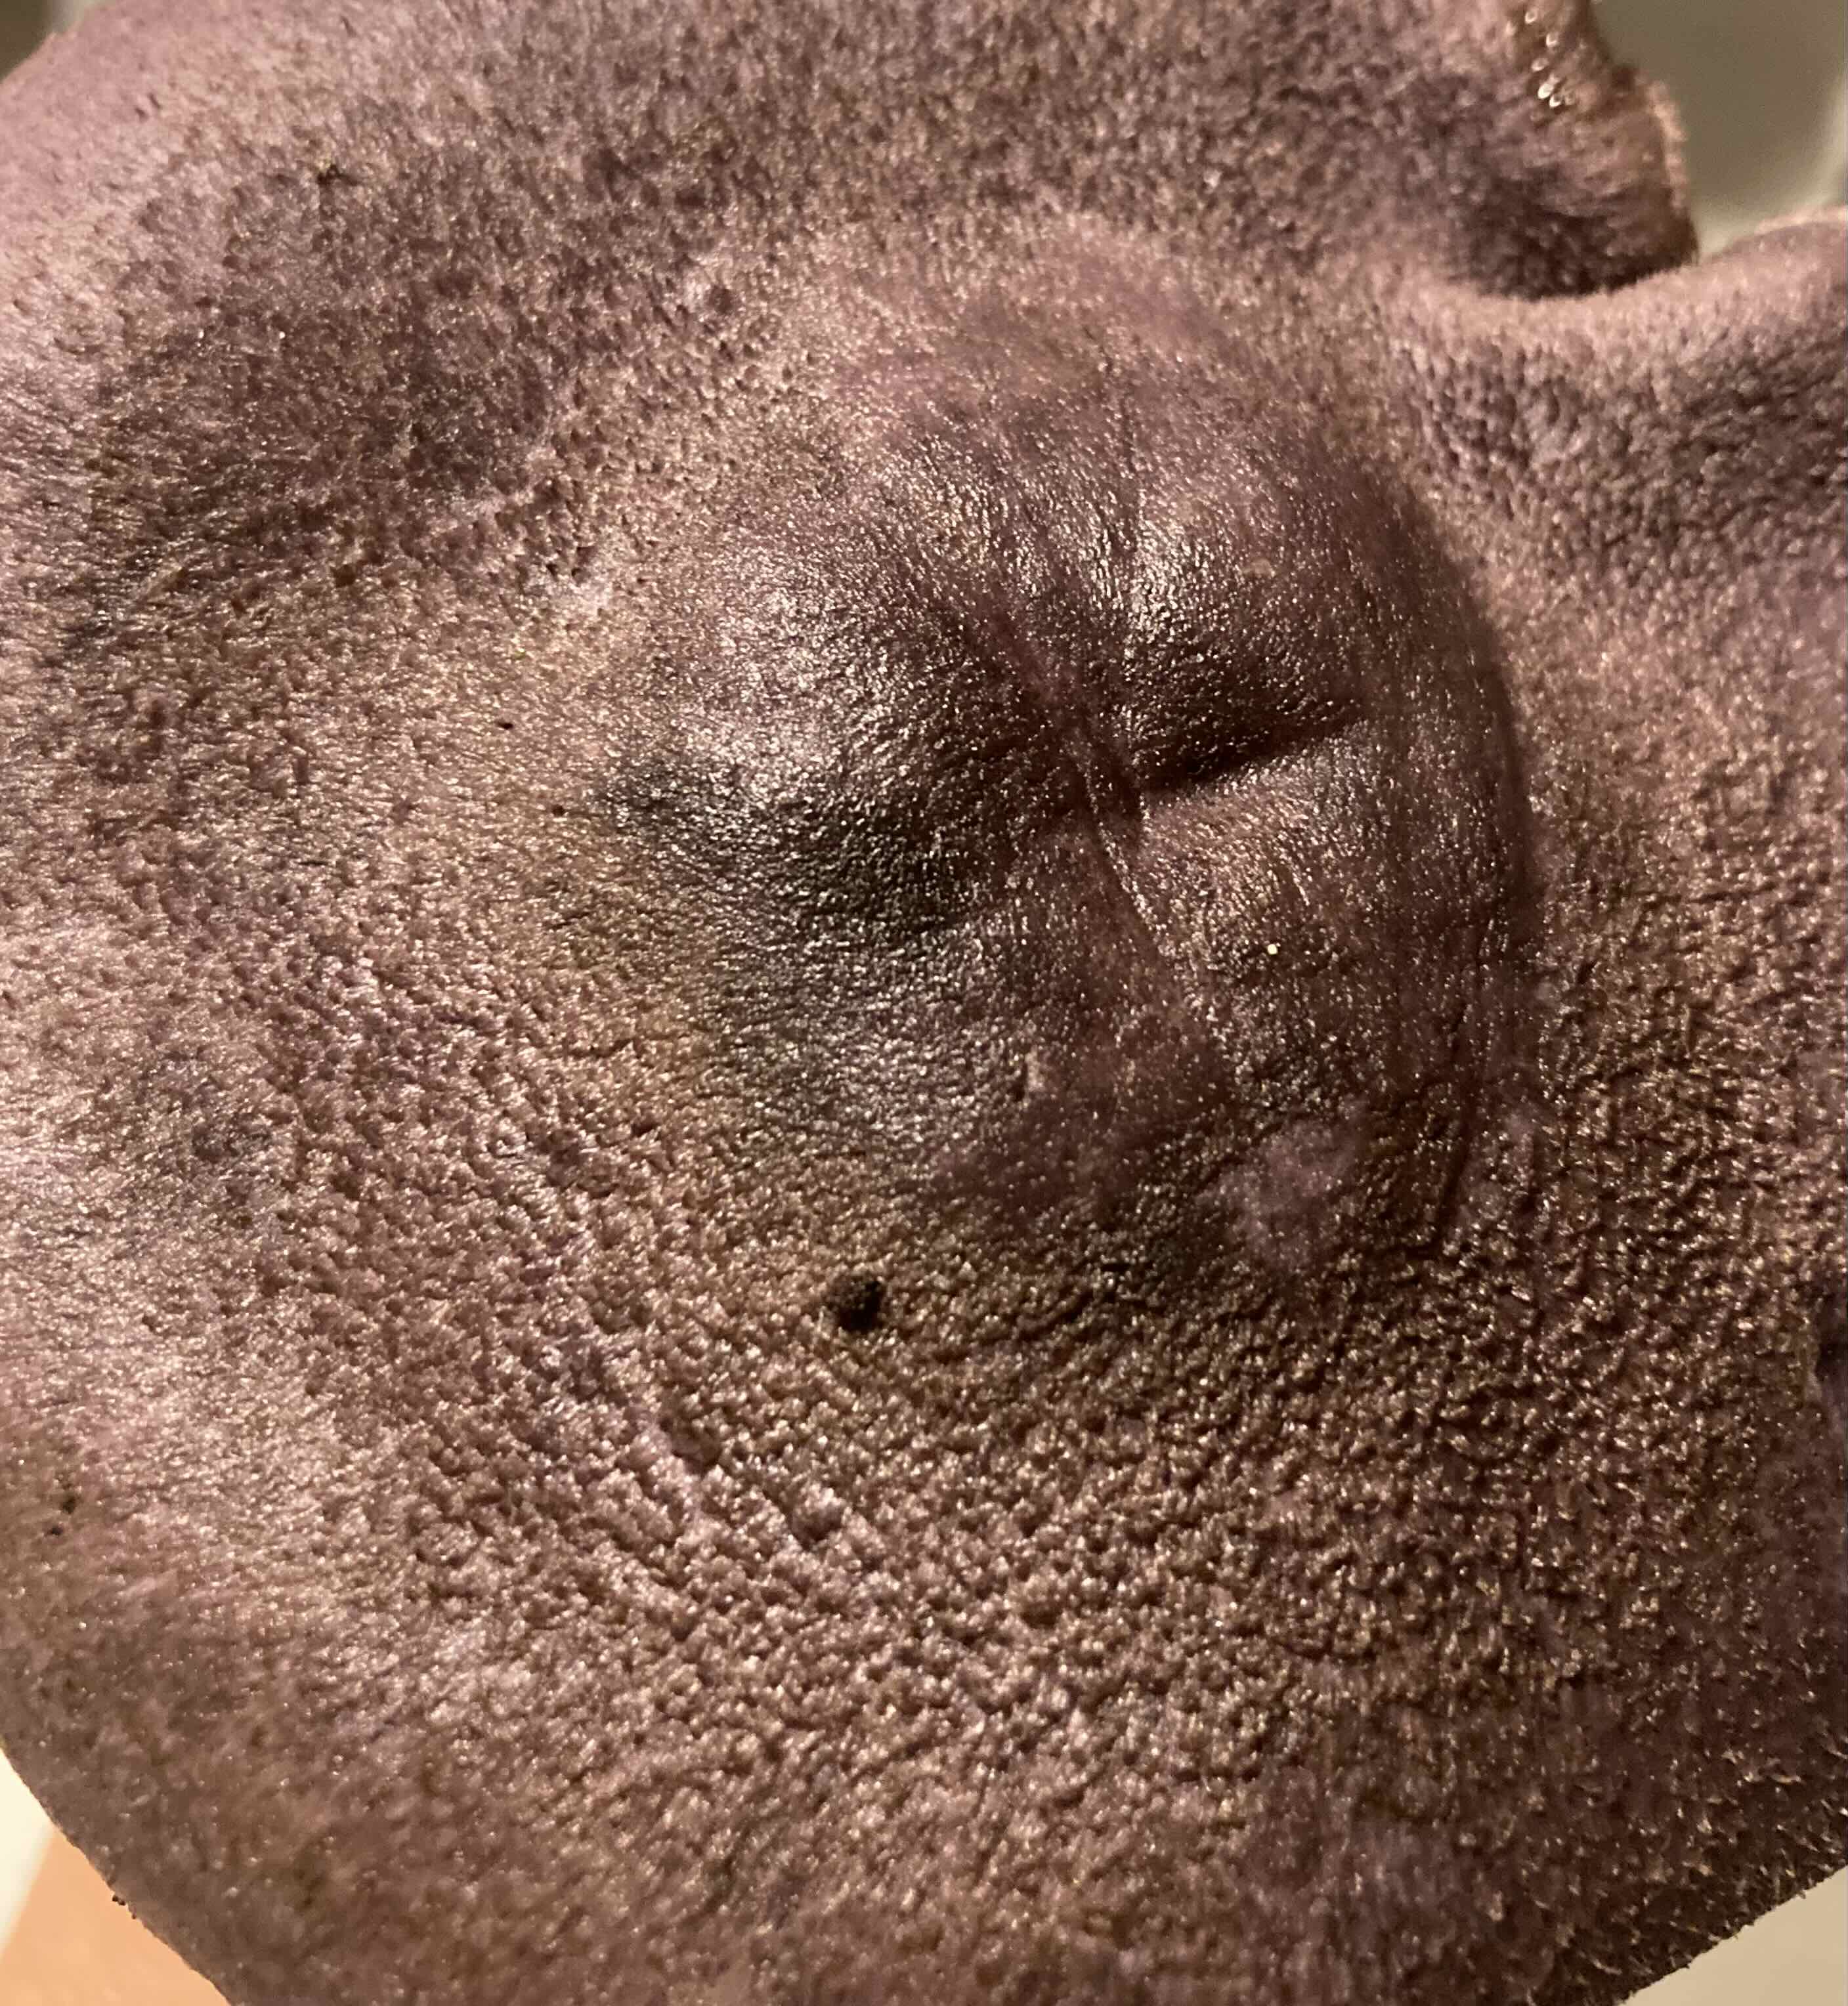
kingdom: Fungi
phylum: Basidiomycota
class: Agaricomycetes
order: Agaricales
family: Cortinariaceae
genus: Cortinarius
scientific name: Cortinarius violaceus
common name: mørkviolet slørhat
